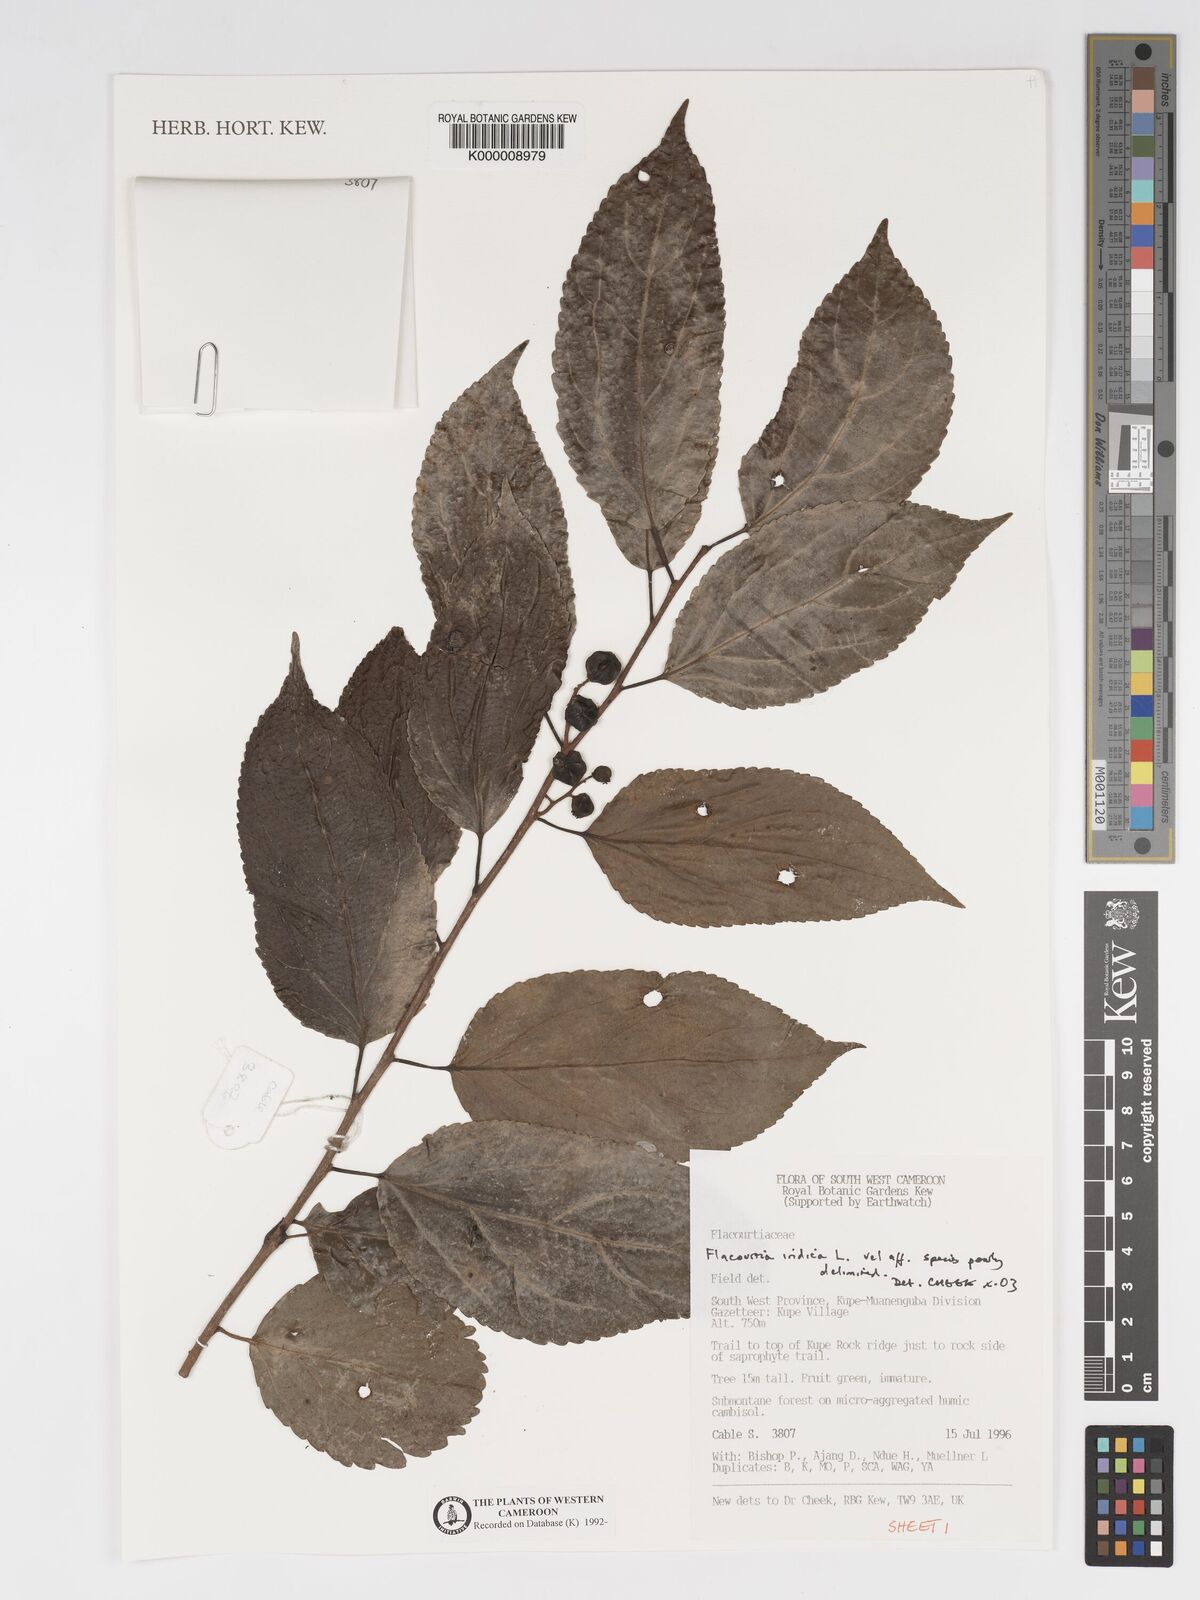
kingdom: Plantae
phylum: Tracheophyta
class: Magnoliopsida
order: Malpighiales
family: Salicaceae
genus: Flacourtia
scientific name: Flacourtia
